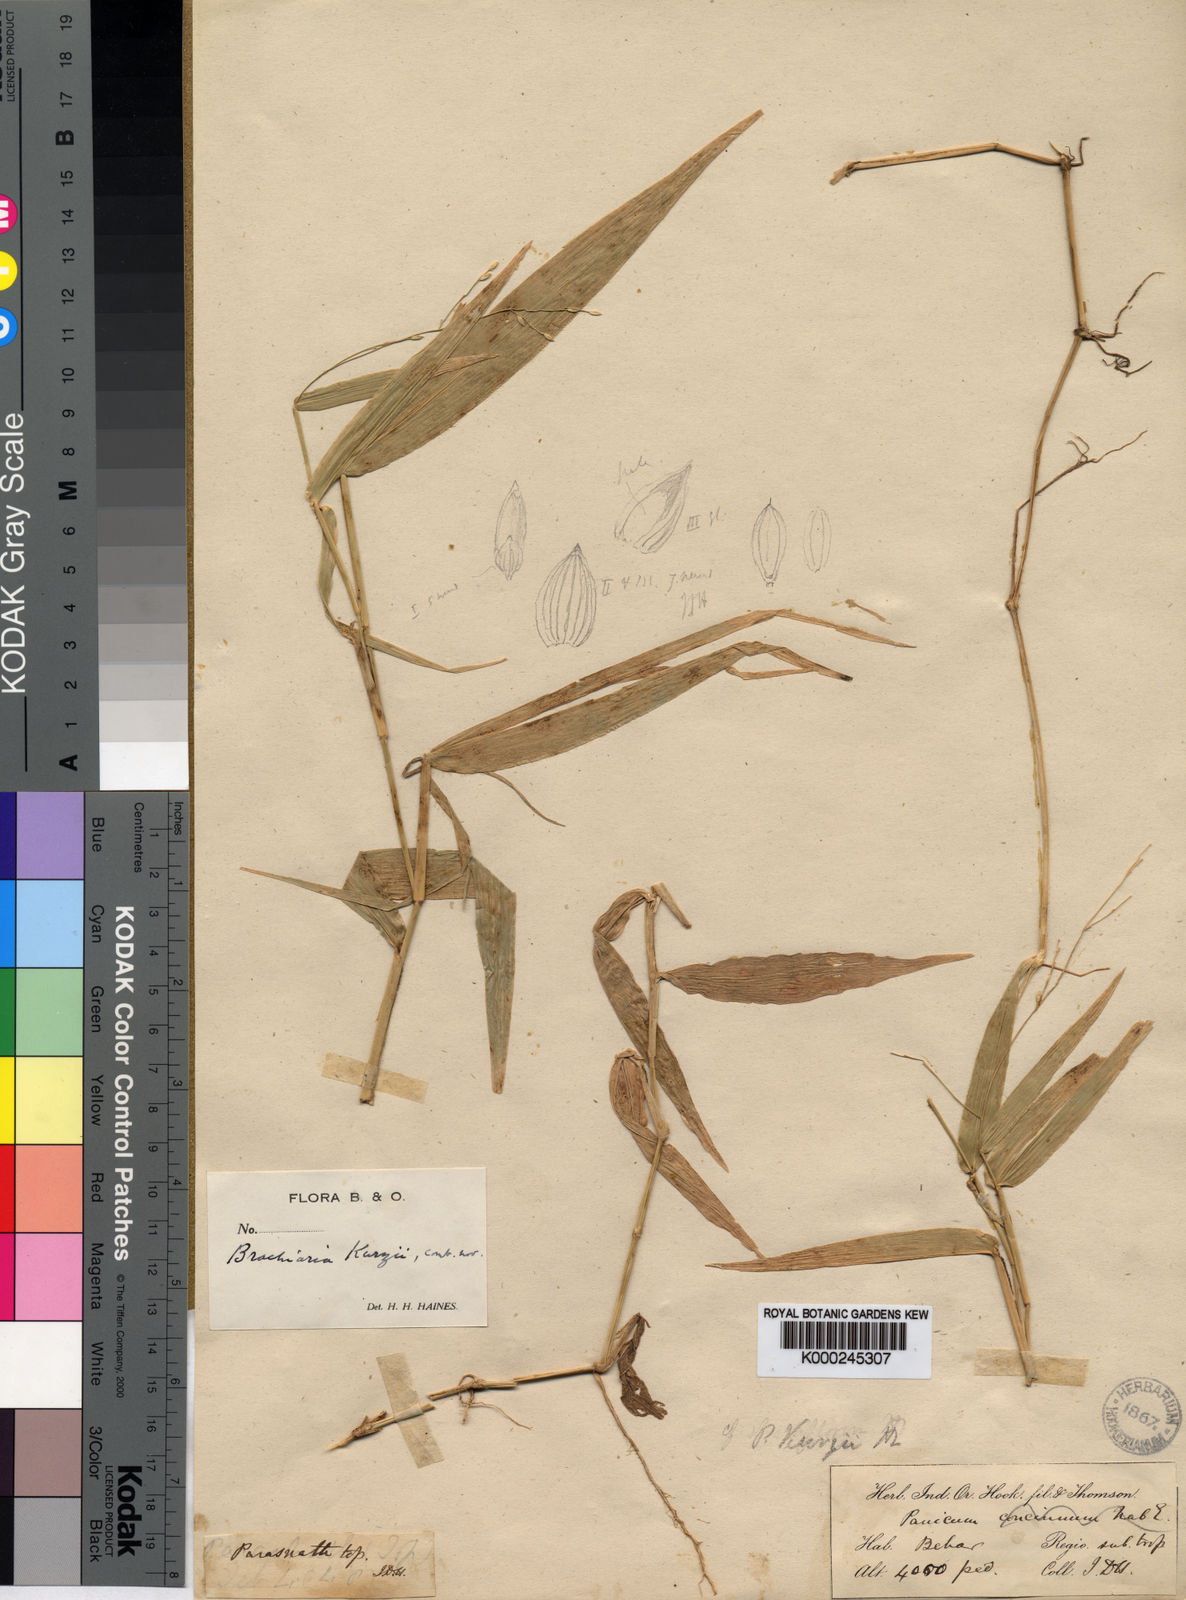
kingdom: Plantae
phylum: Tracheophyta
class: Liliopsida
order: Poales
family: Poaceae
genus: Urochloa
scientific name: Urochloa kurzii
